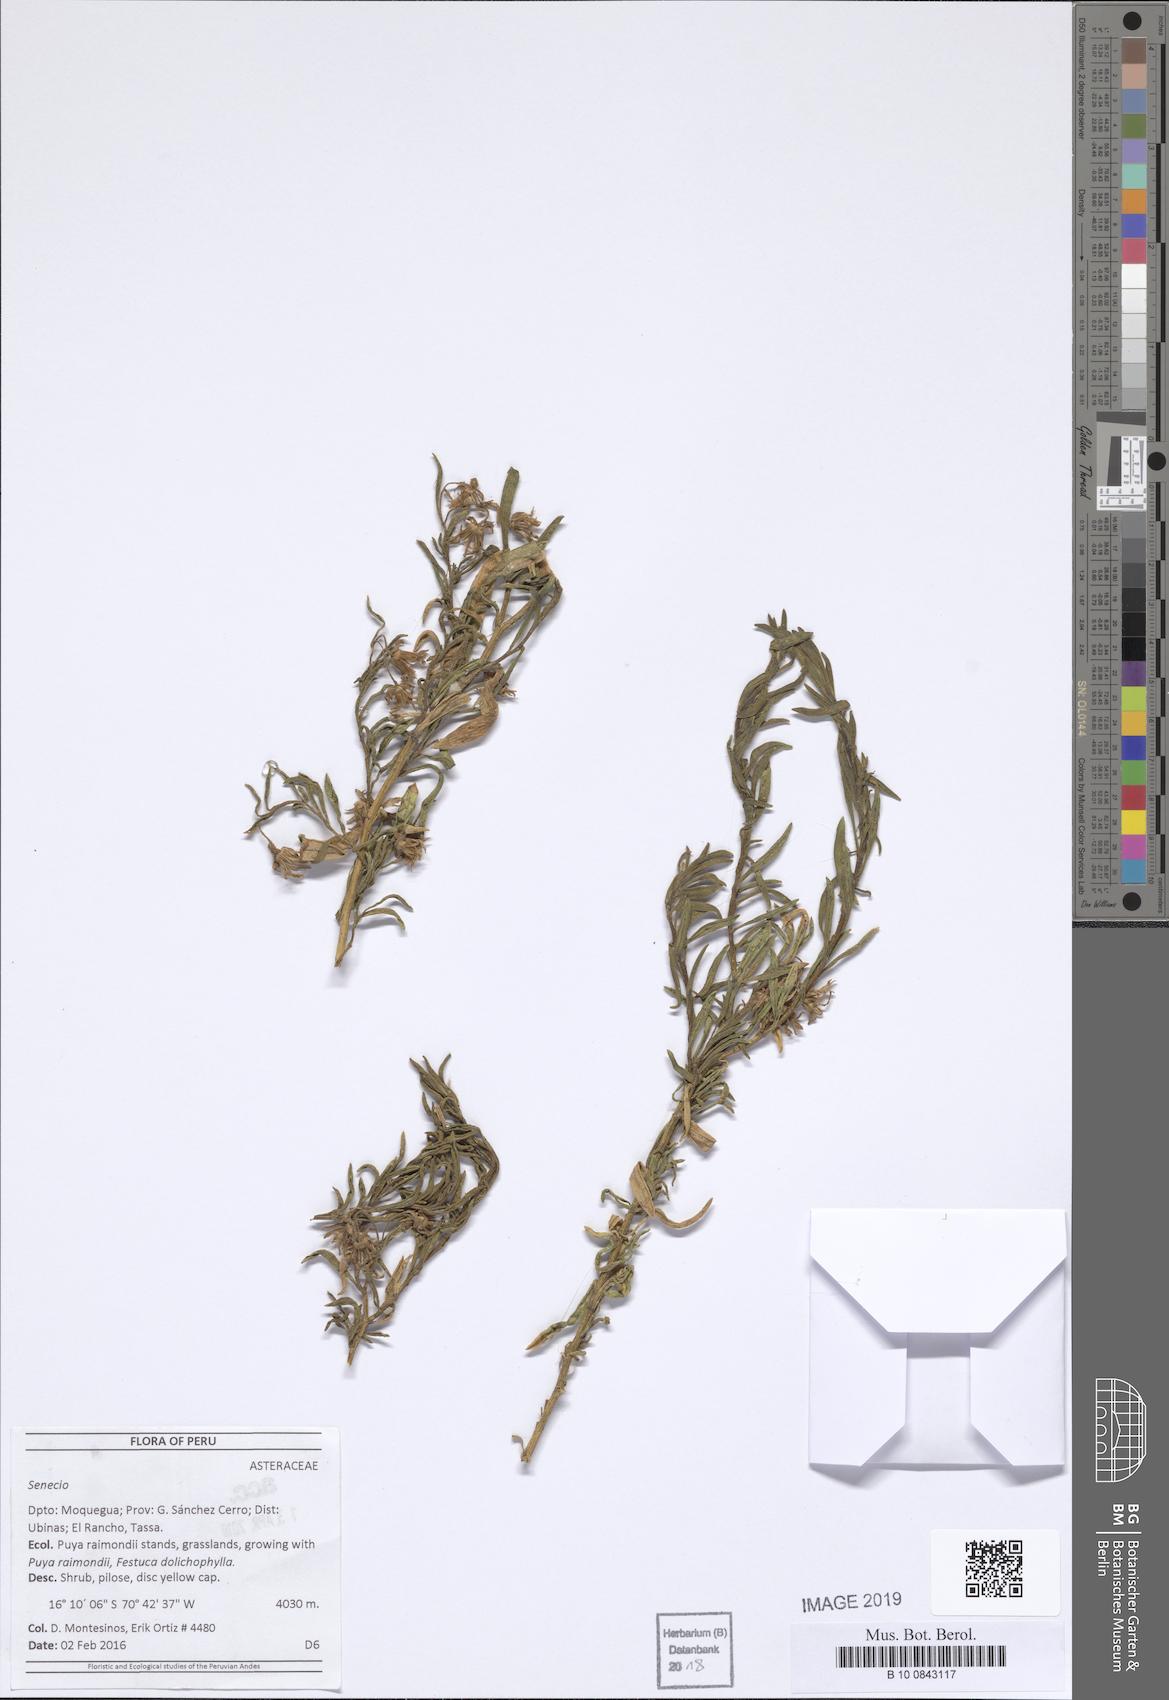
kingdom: Plantae
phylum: Tracheophyta
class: Magnoliopsida
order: Asterales
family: Asteraceae
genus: Senecio
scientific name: Senecio
